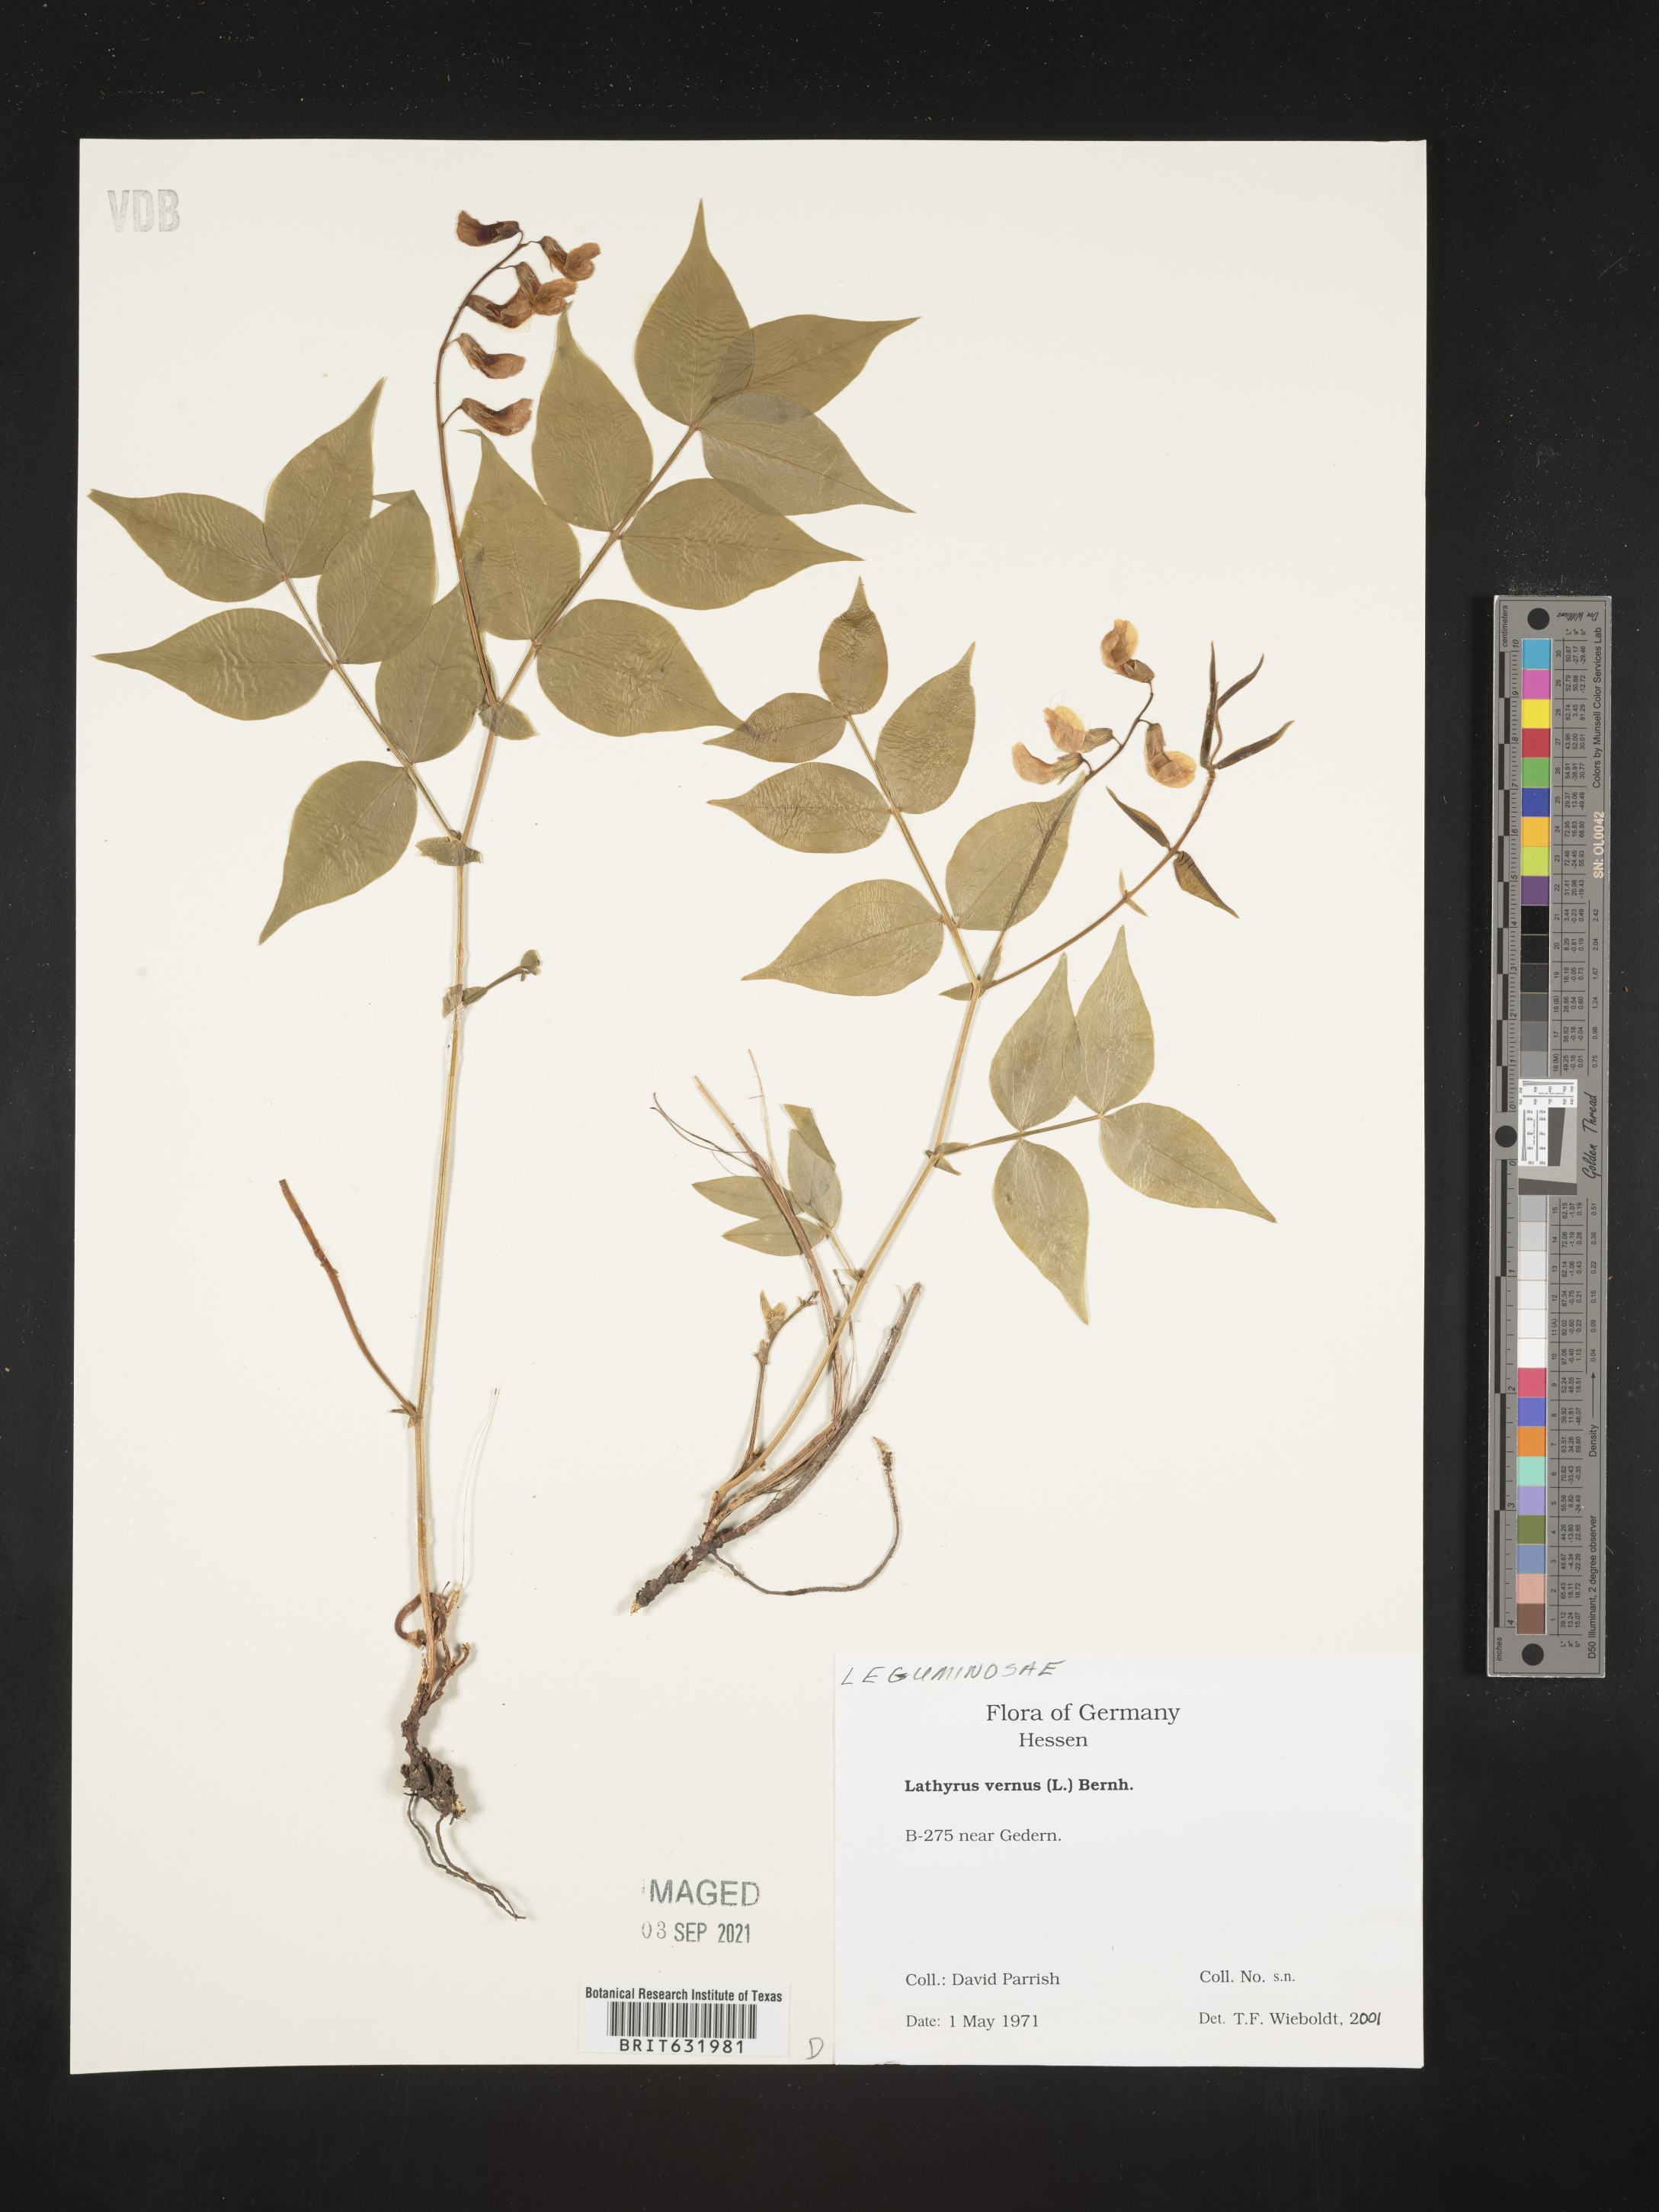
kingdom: Plantae
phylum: Tracheophyta
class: Magnoliopsida
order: Fabales
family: Fabaceae
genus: Lathyrus
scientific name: Lathyrus
